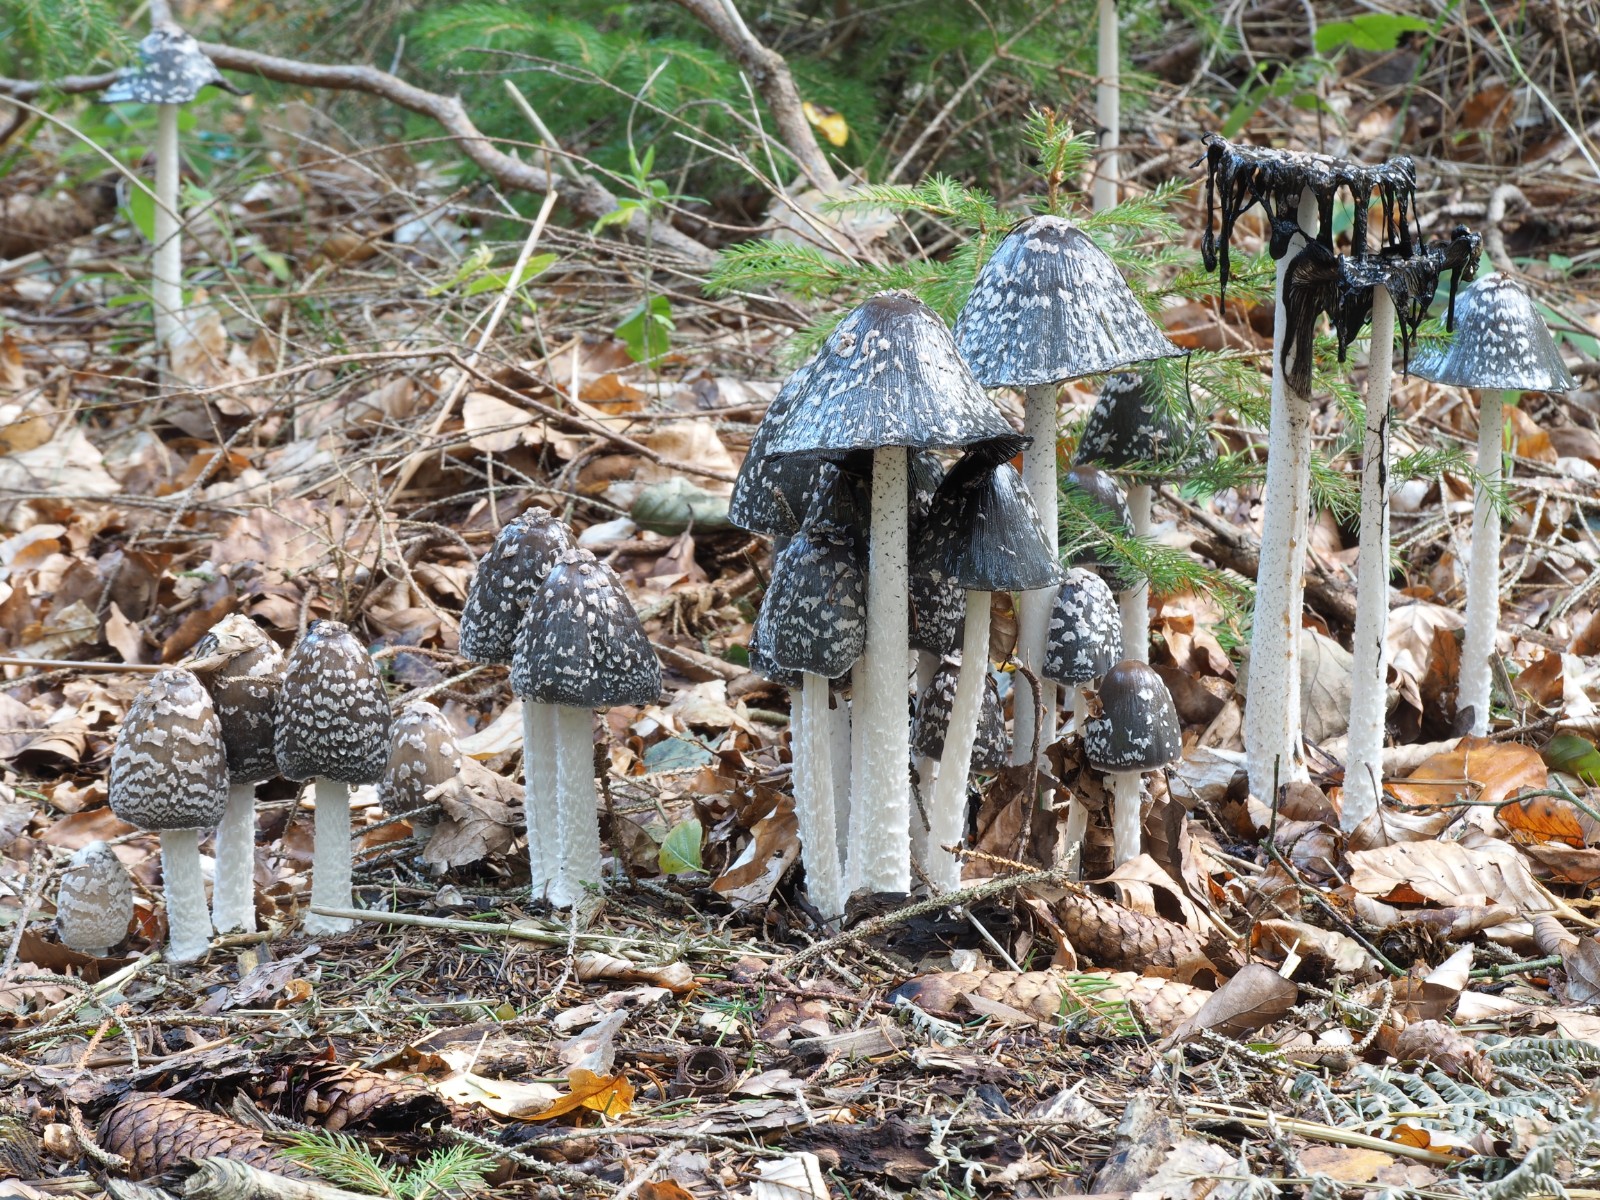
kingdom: Fungi
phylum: Basidiomycota
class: Agaricomycetes
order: Agaricales
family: Psathyrellaceae
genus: Coprinopsis
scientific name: Coprinopsis picacea
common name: skade-blækhat
